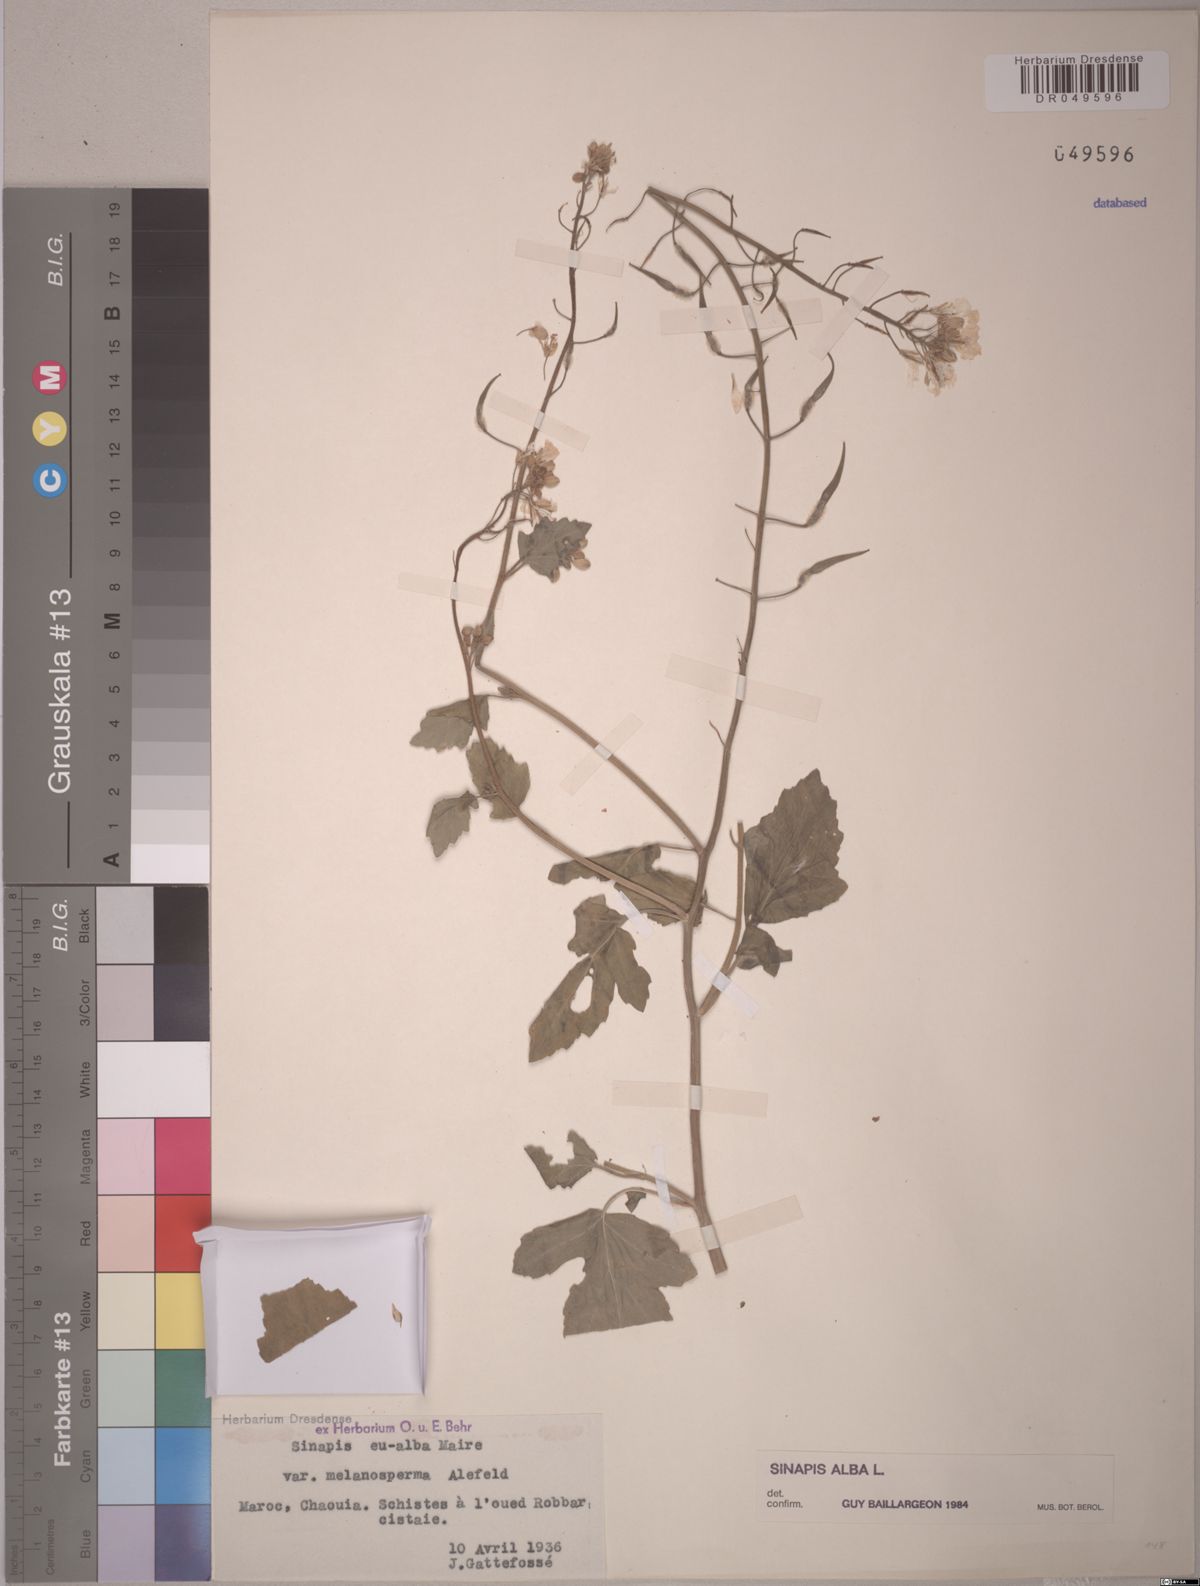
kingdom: Plantae
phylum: Tracheophyta
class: Magnoliopsida
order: Brassicales
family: Brassicaceae
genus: Sinapis
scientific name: Sinapis alba
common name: White mustard
